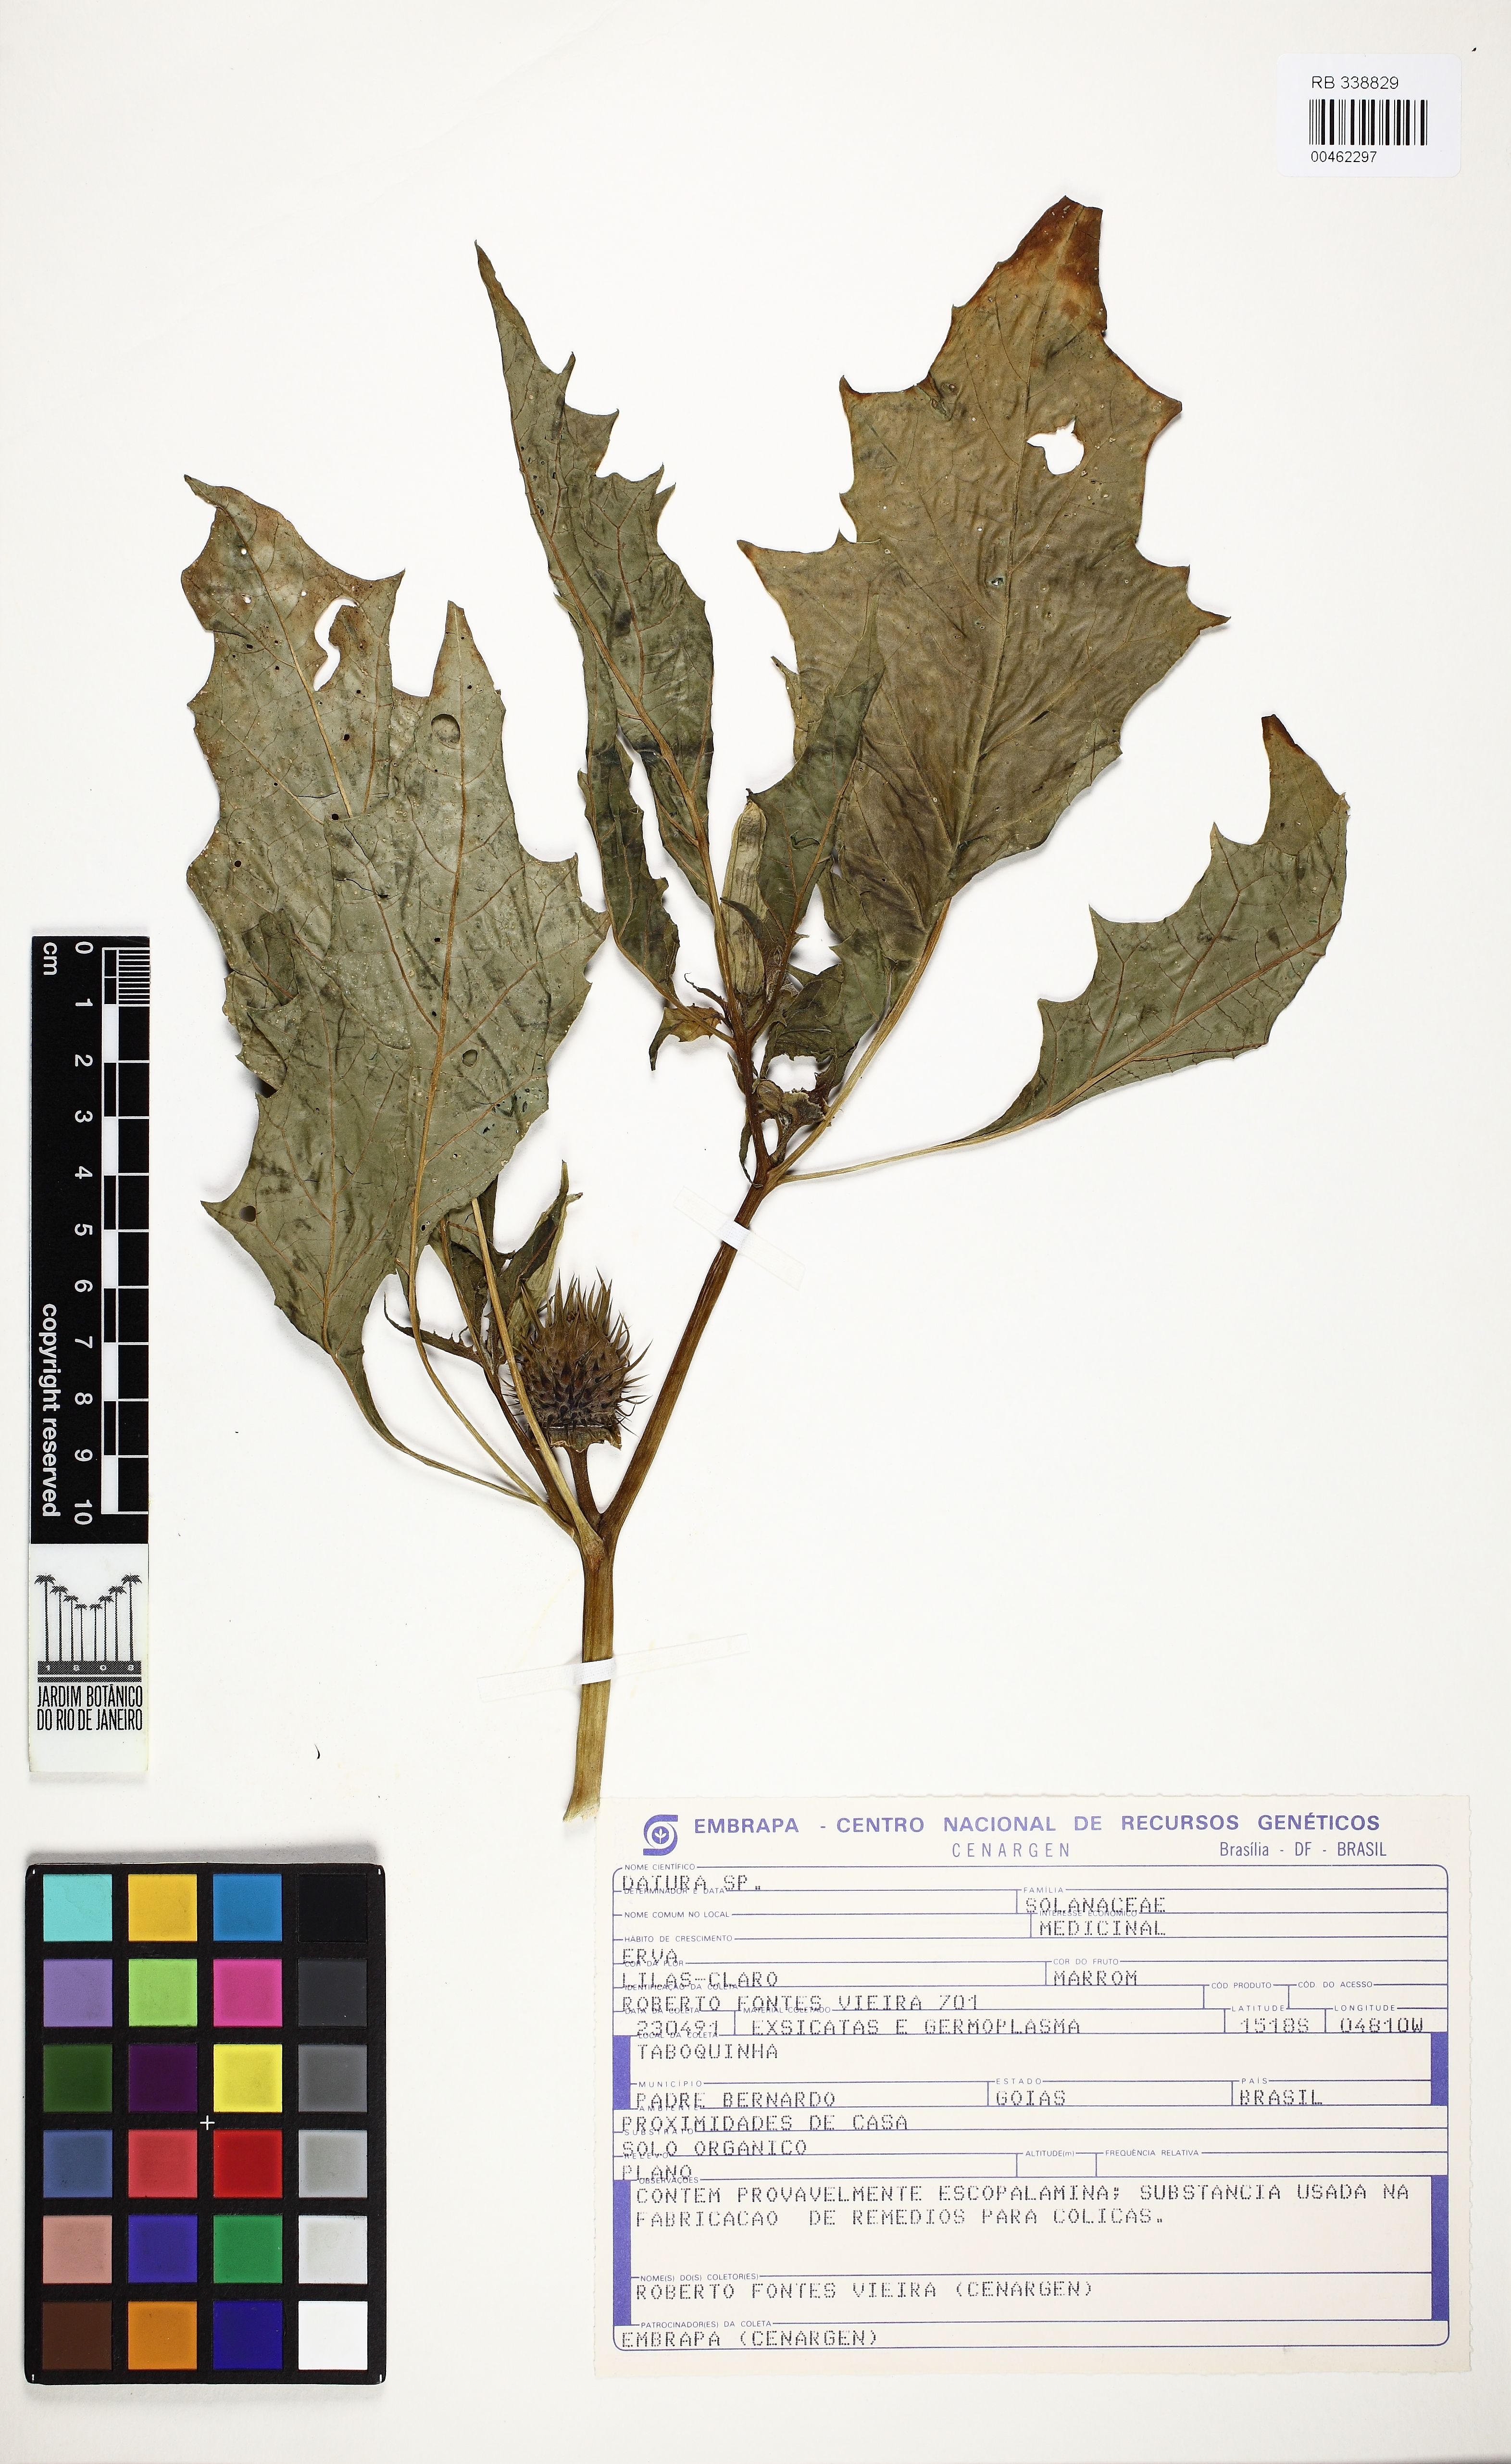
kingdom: Plantae
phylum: Tracheophyta
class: Magnoliopsida
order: Solanales
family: Solanaceae
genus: Datura
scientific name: Datura stramonium
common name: Thorn-apple
